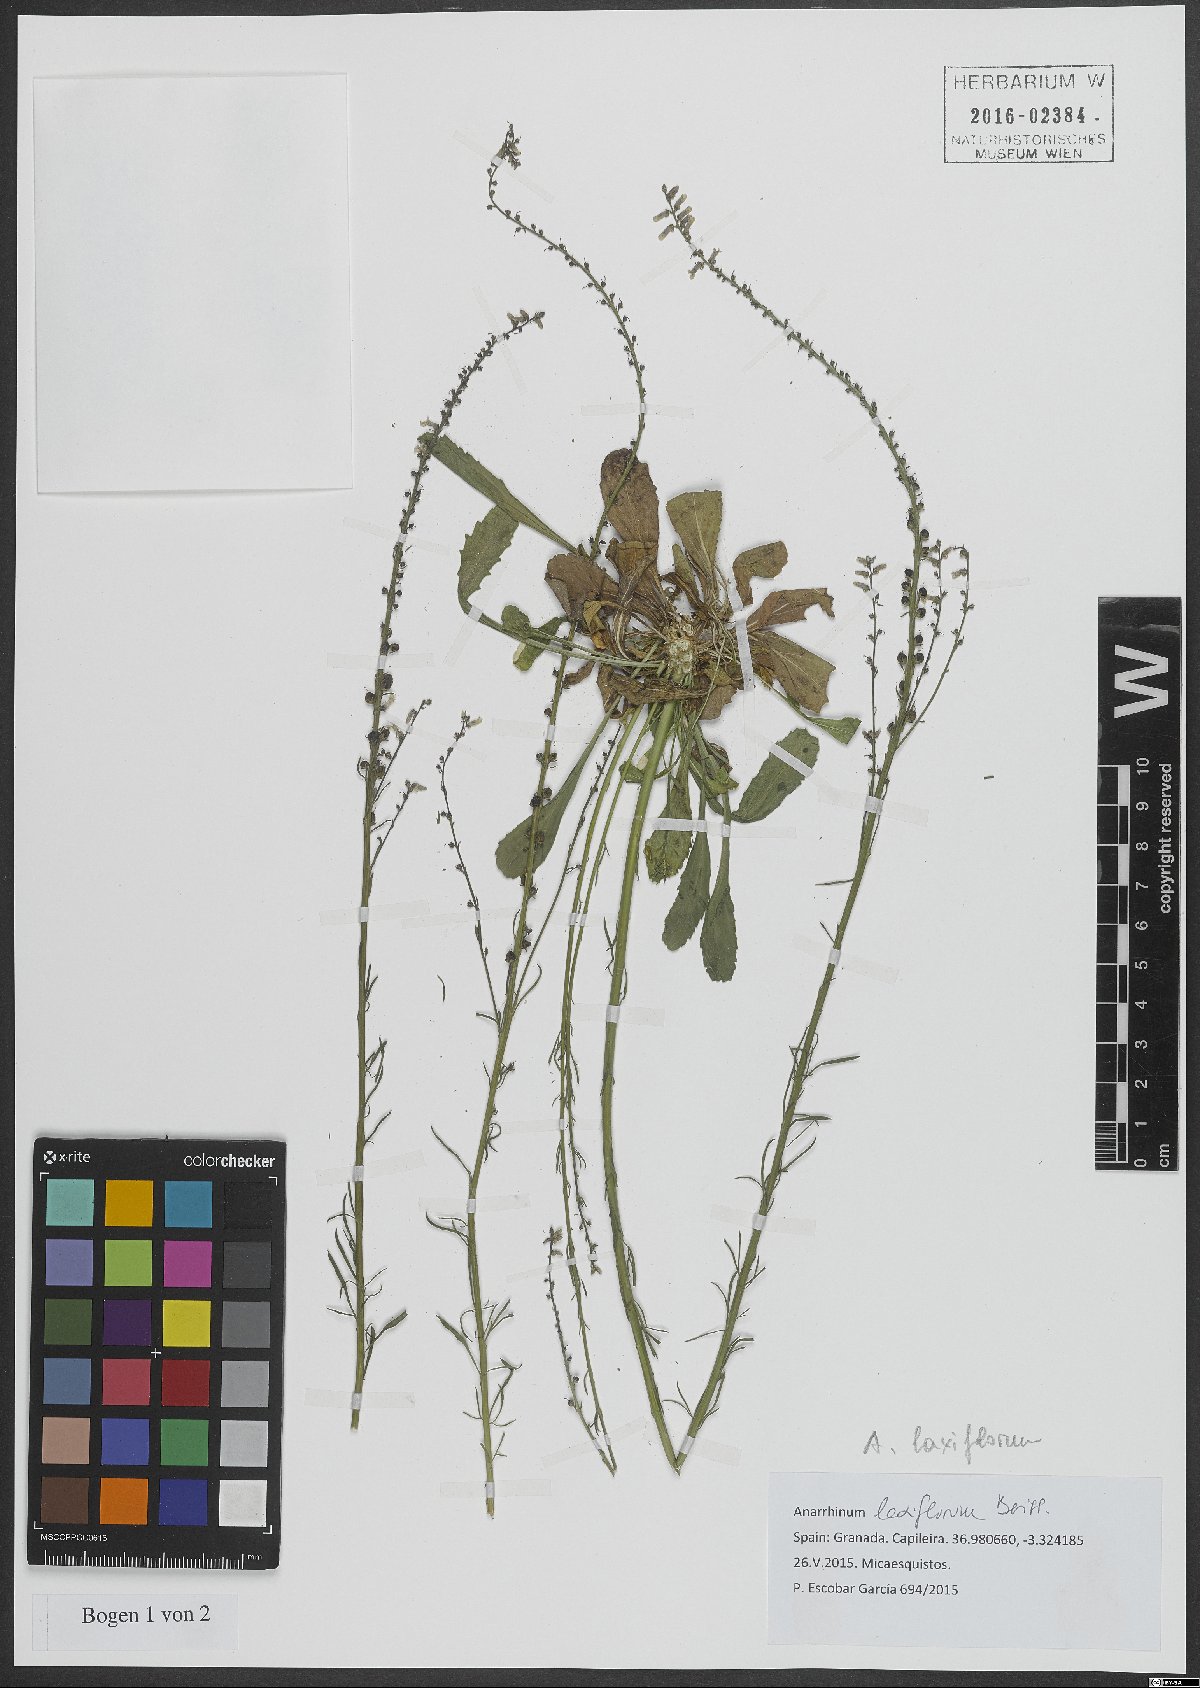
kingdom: Plantae
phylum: Tracheophyta
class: Magnoliopsida
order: Lamiales
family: Plantaginaceae
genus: Anarrhinum
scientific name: Anarrhinum laxiflorum
